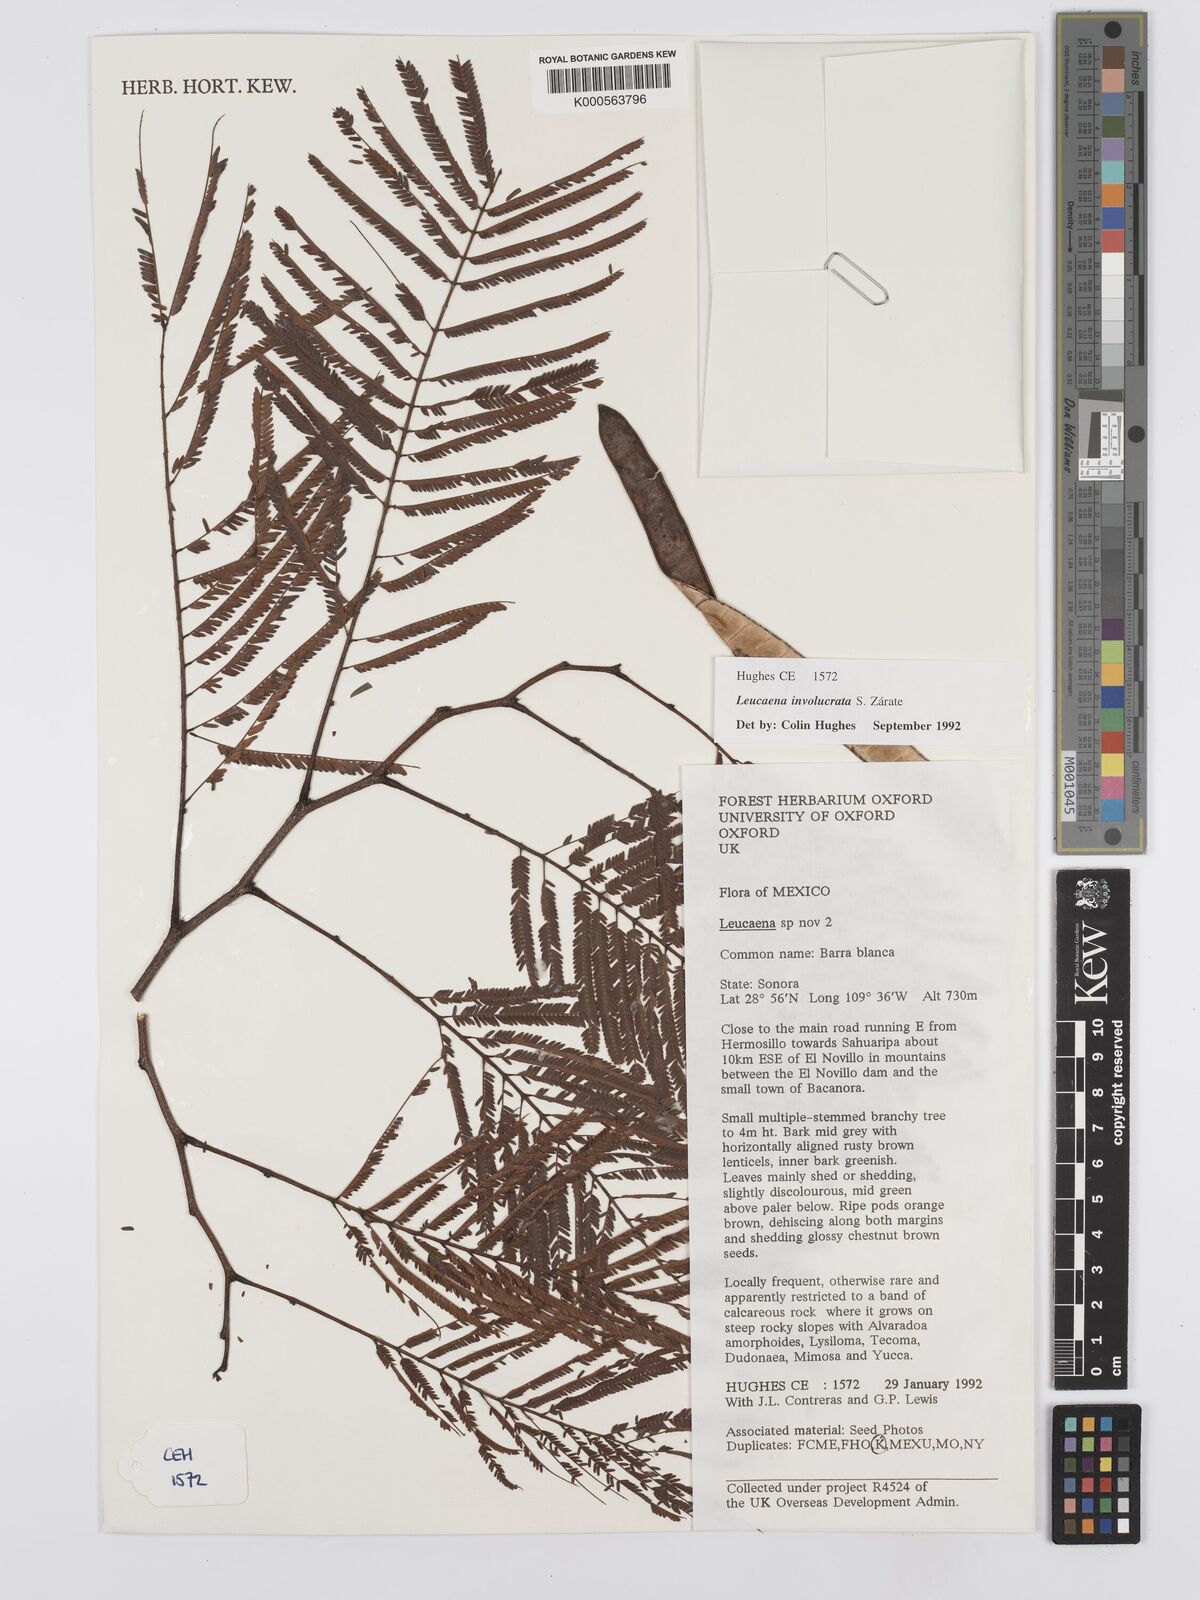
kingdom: Plantae
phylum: Tracheophyta
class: Magnoliopsida
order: Fabales
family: Fabaceae
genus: Leucaena
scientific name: Leucaena
